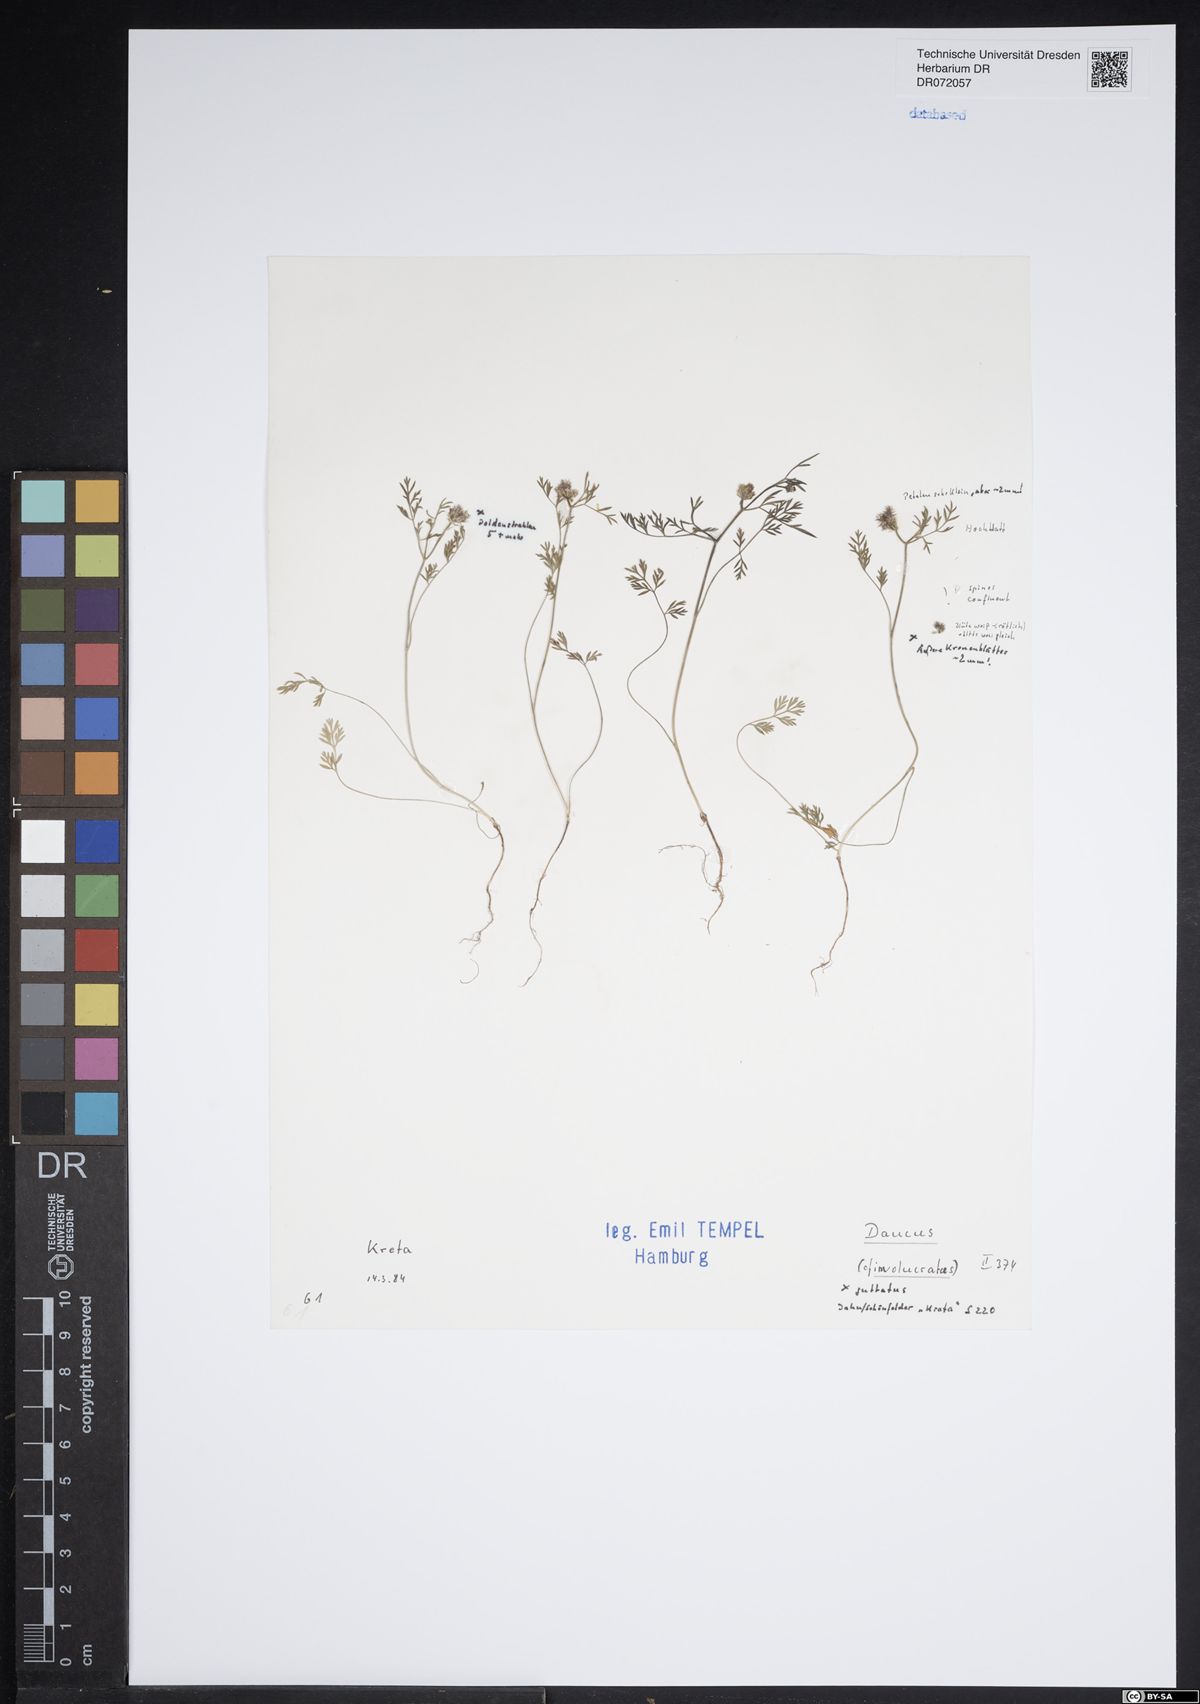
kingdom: Plantae
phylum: Tracheophyta
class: Magnoliopsida
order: Apiales
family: Apiaceae
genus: Daucus
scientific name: Daucus involucratus
